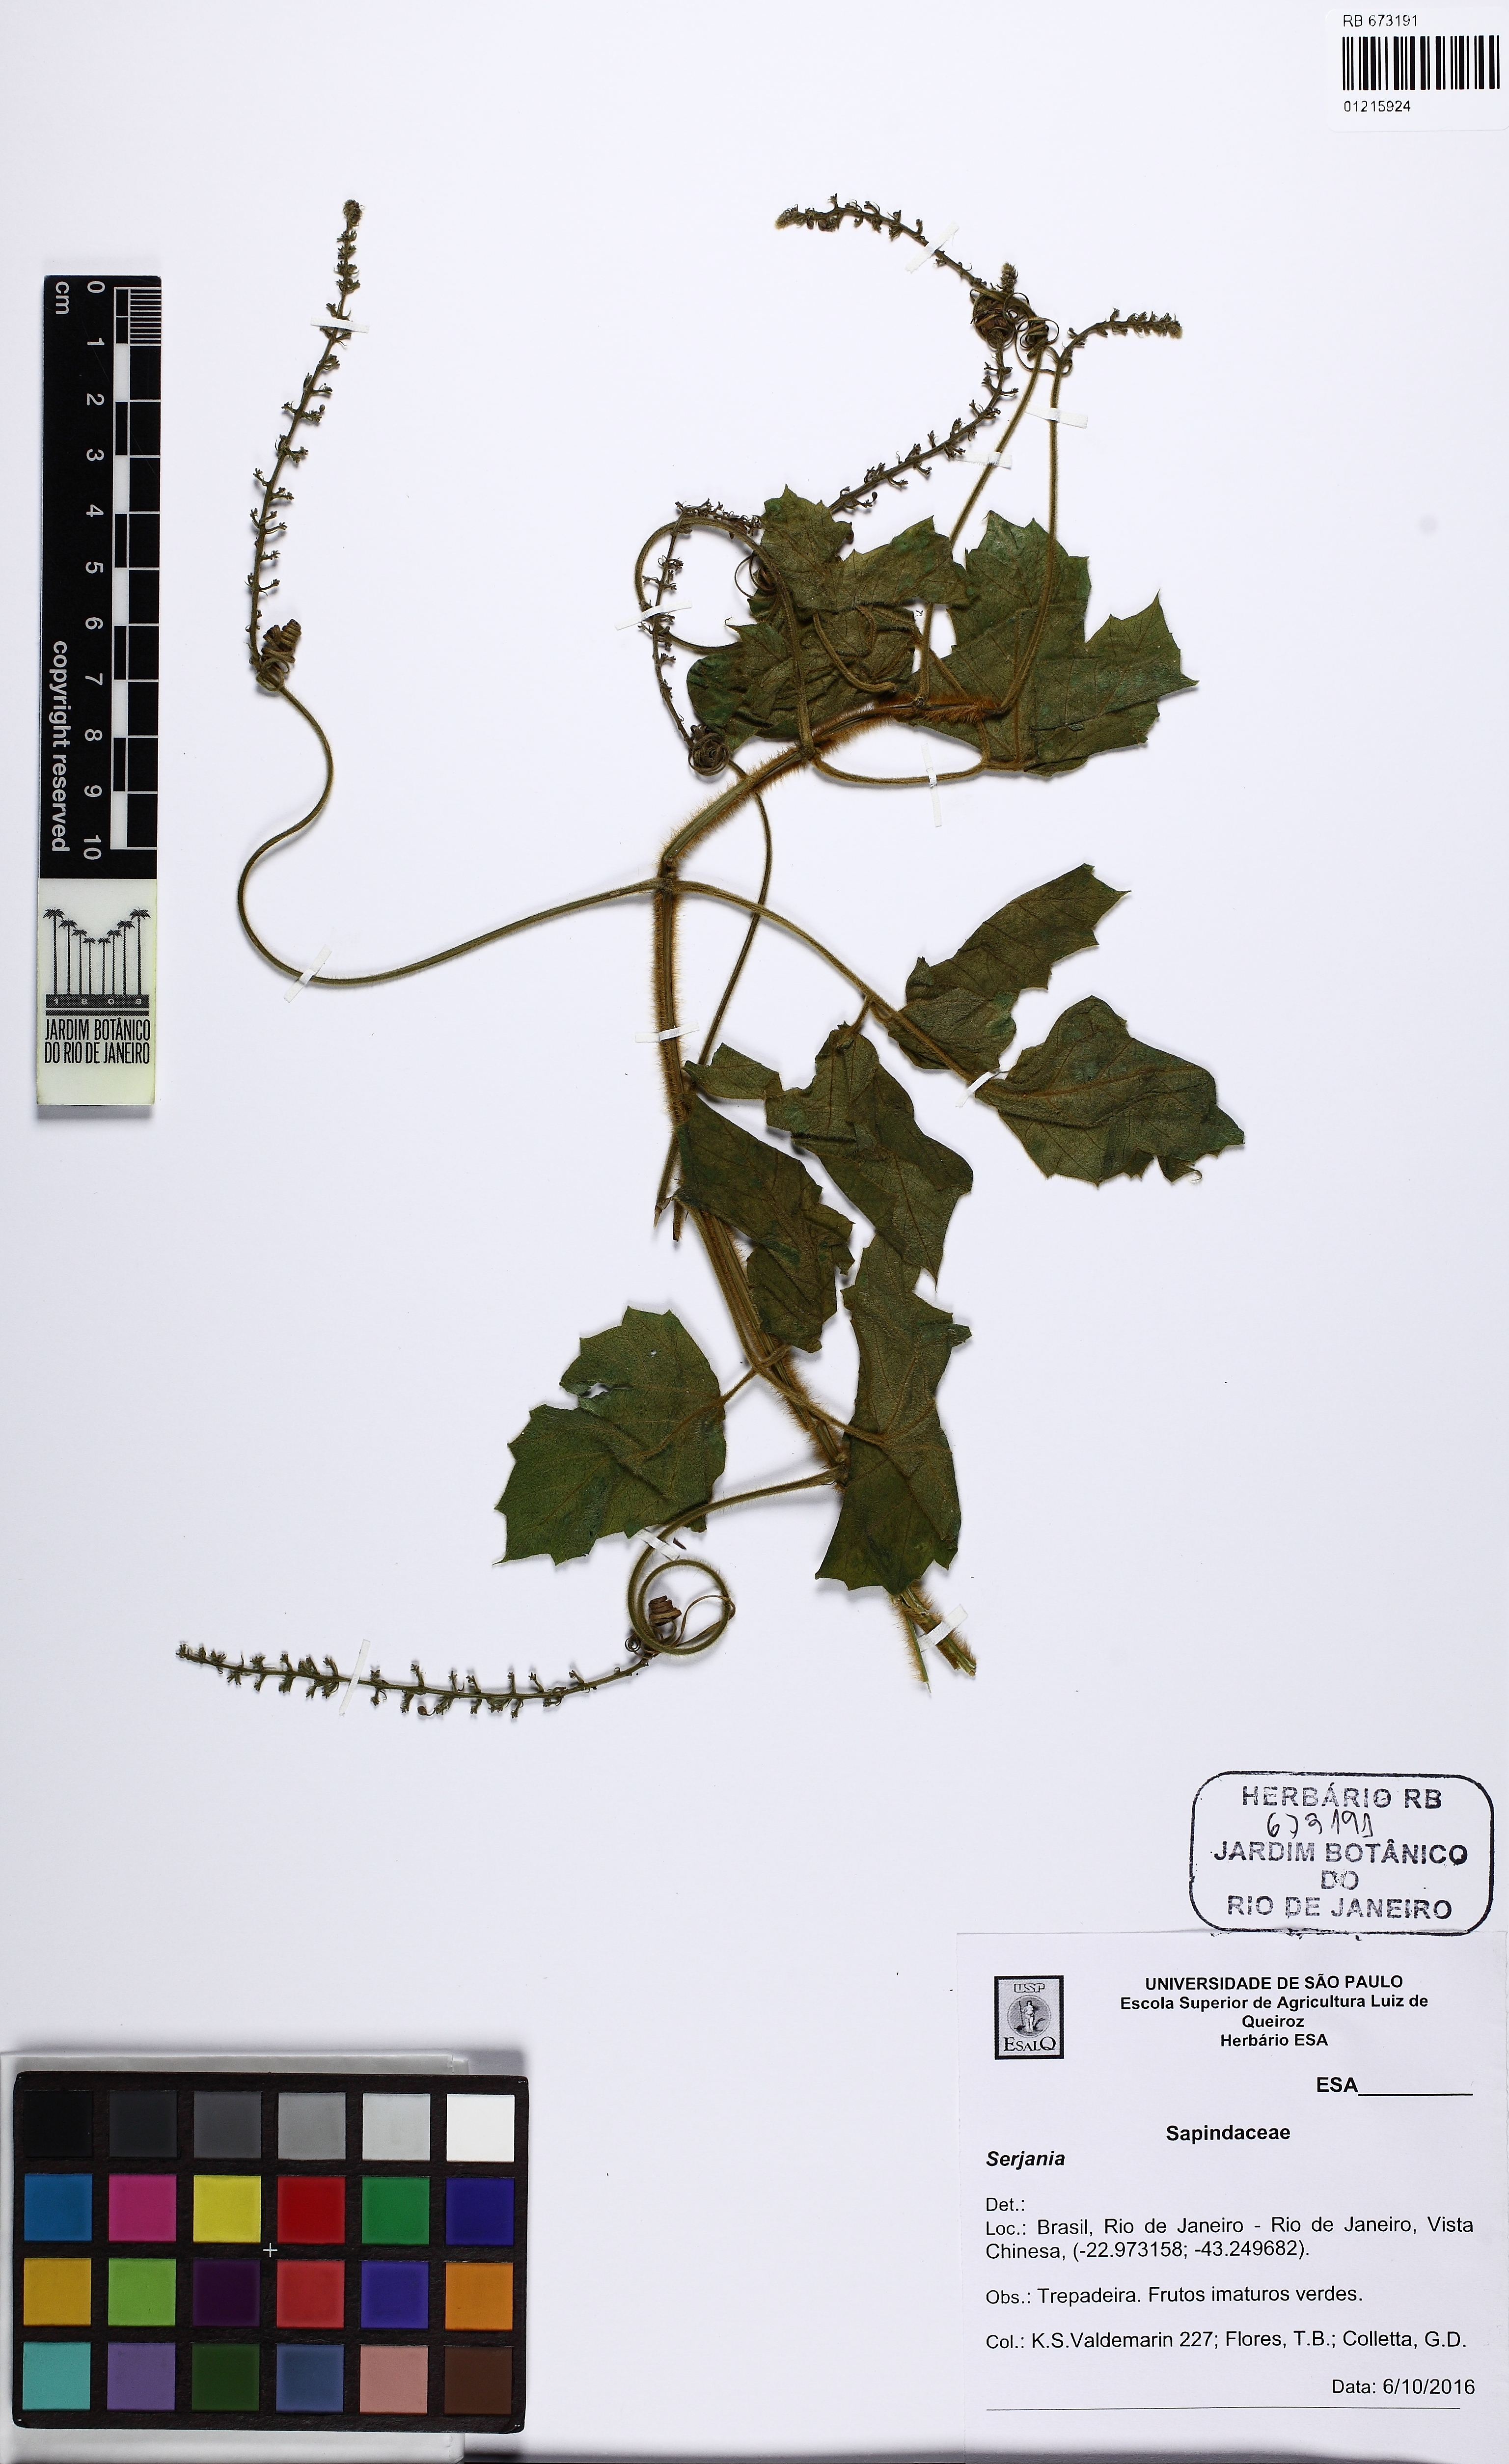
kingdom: Plantae
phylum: Tracheophyta
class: Magnoliopsida
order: Sapindales
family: Sapindaceae
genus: Serjania
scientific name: Serjania ferruginea
